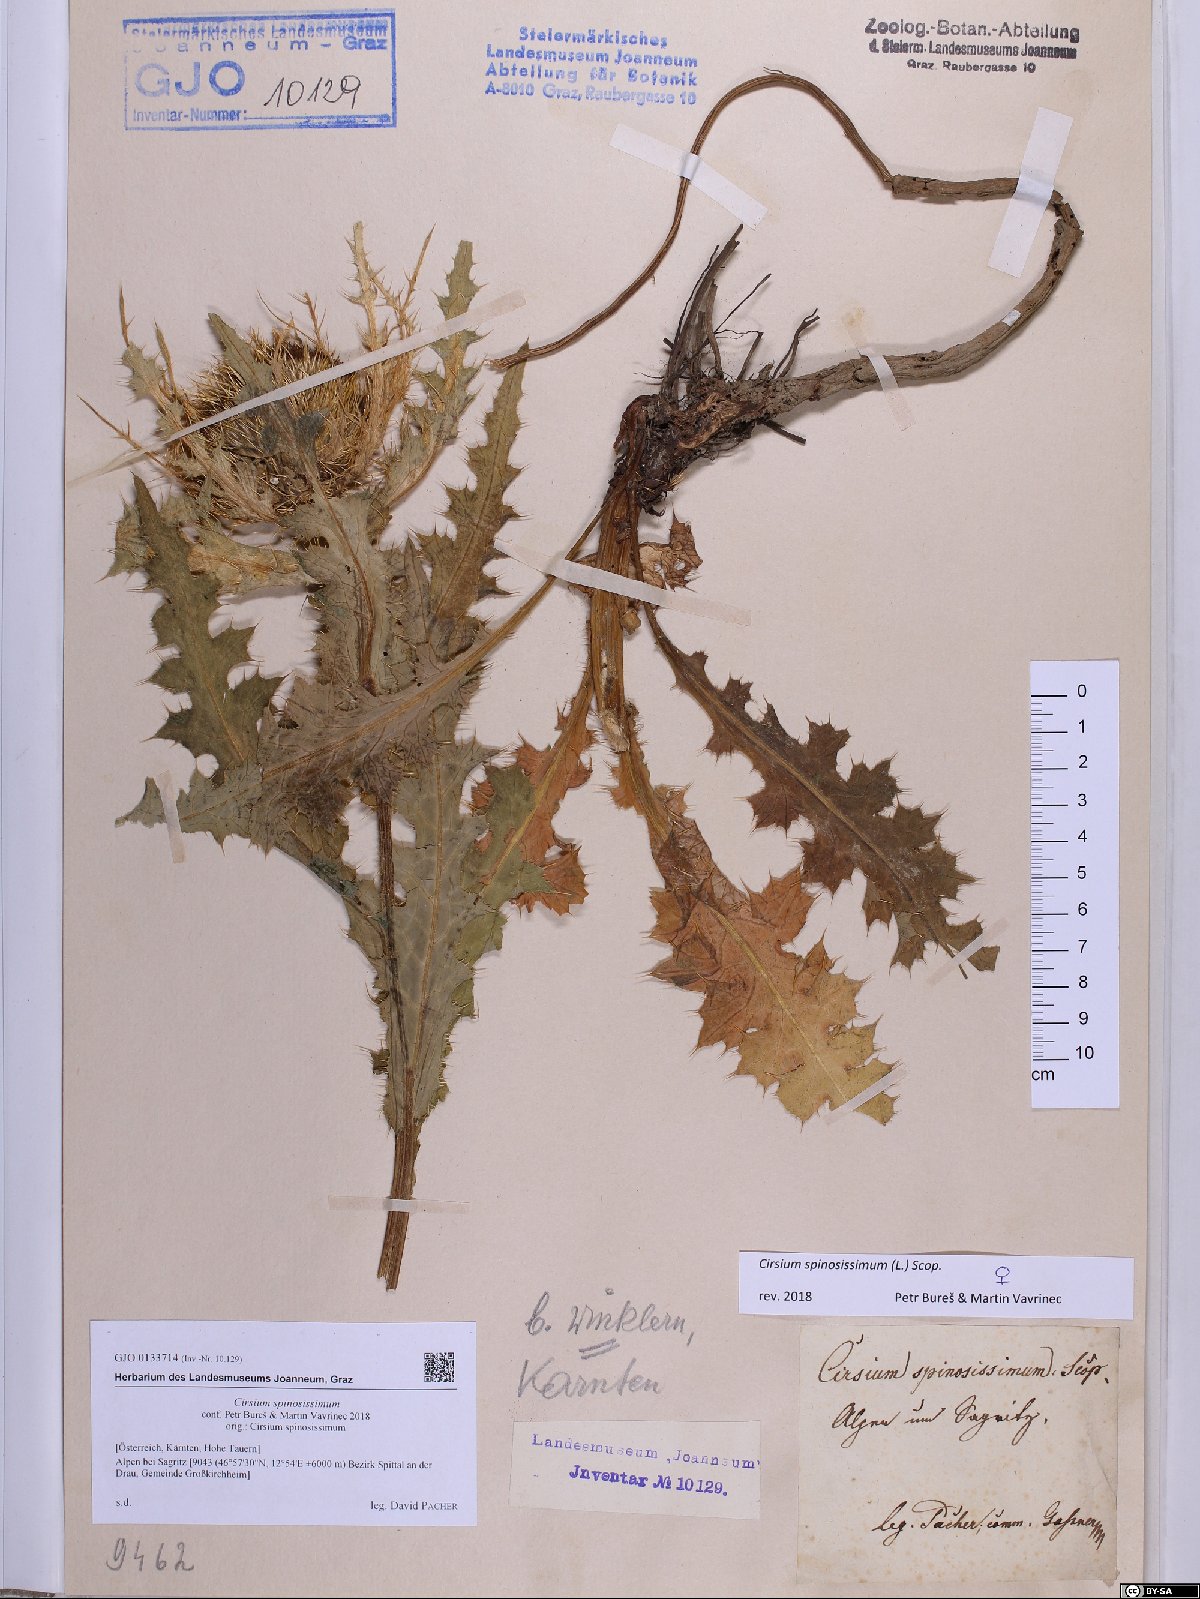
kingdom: Plantae
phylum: Tracheophyta
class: Magnoliopsida
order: Asterales
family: Asteraceae
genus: Cirsium
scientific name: Cirsium spinosissimum
